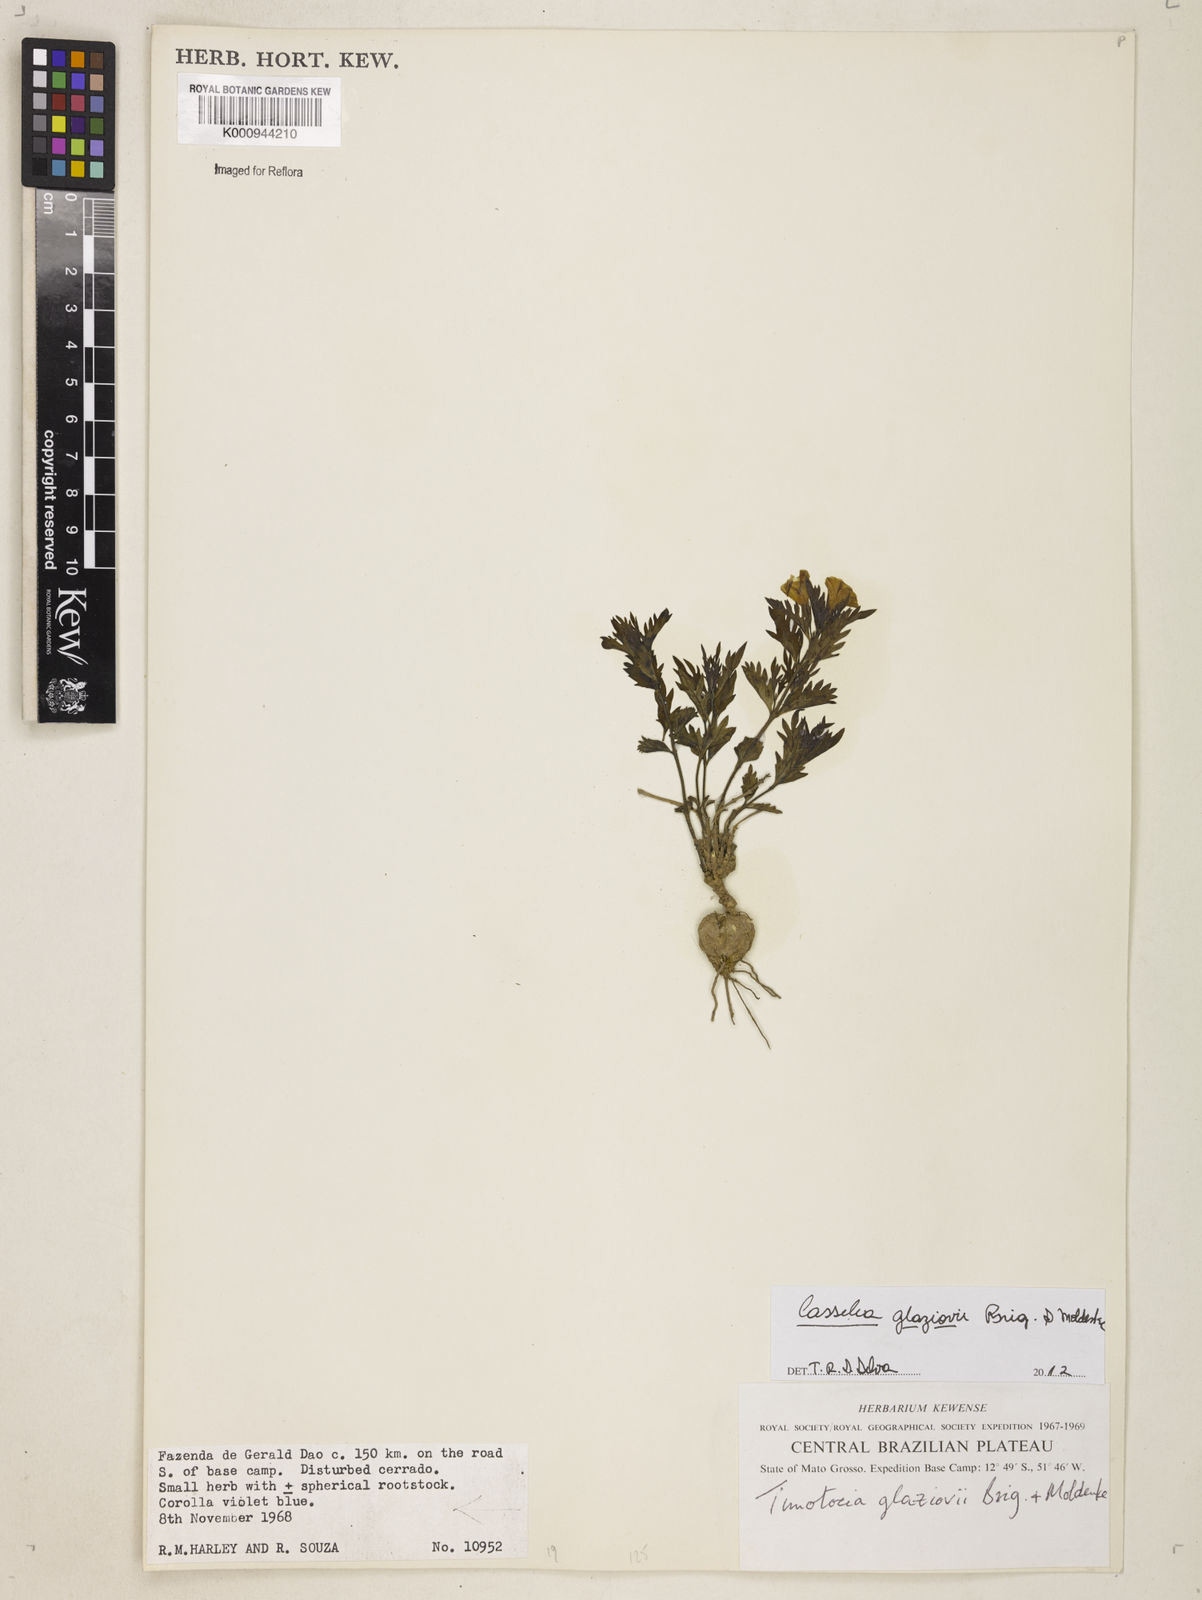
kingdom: Plantae
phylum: Tracheophyta
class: Magnoliopsida
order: Lamiales
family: Verbenaceae
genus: Casselia
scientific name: Casselia glaziovii
